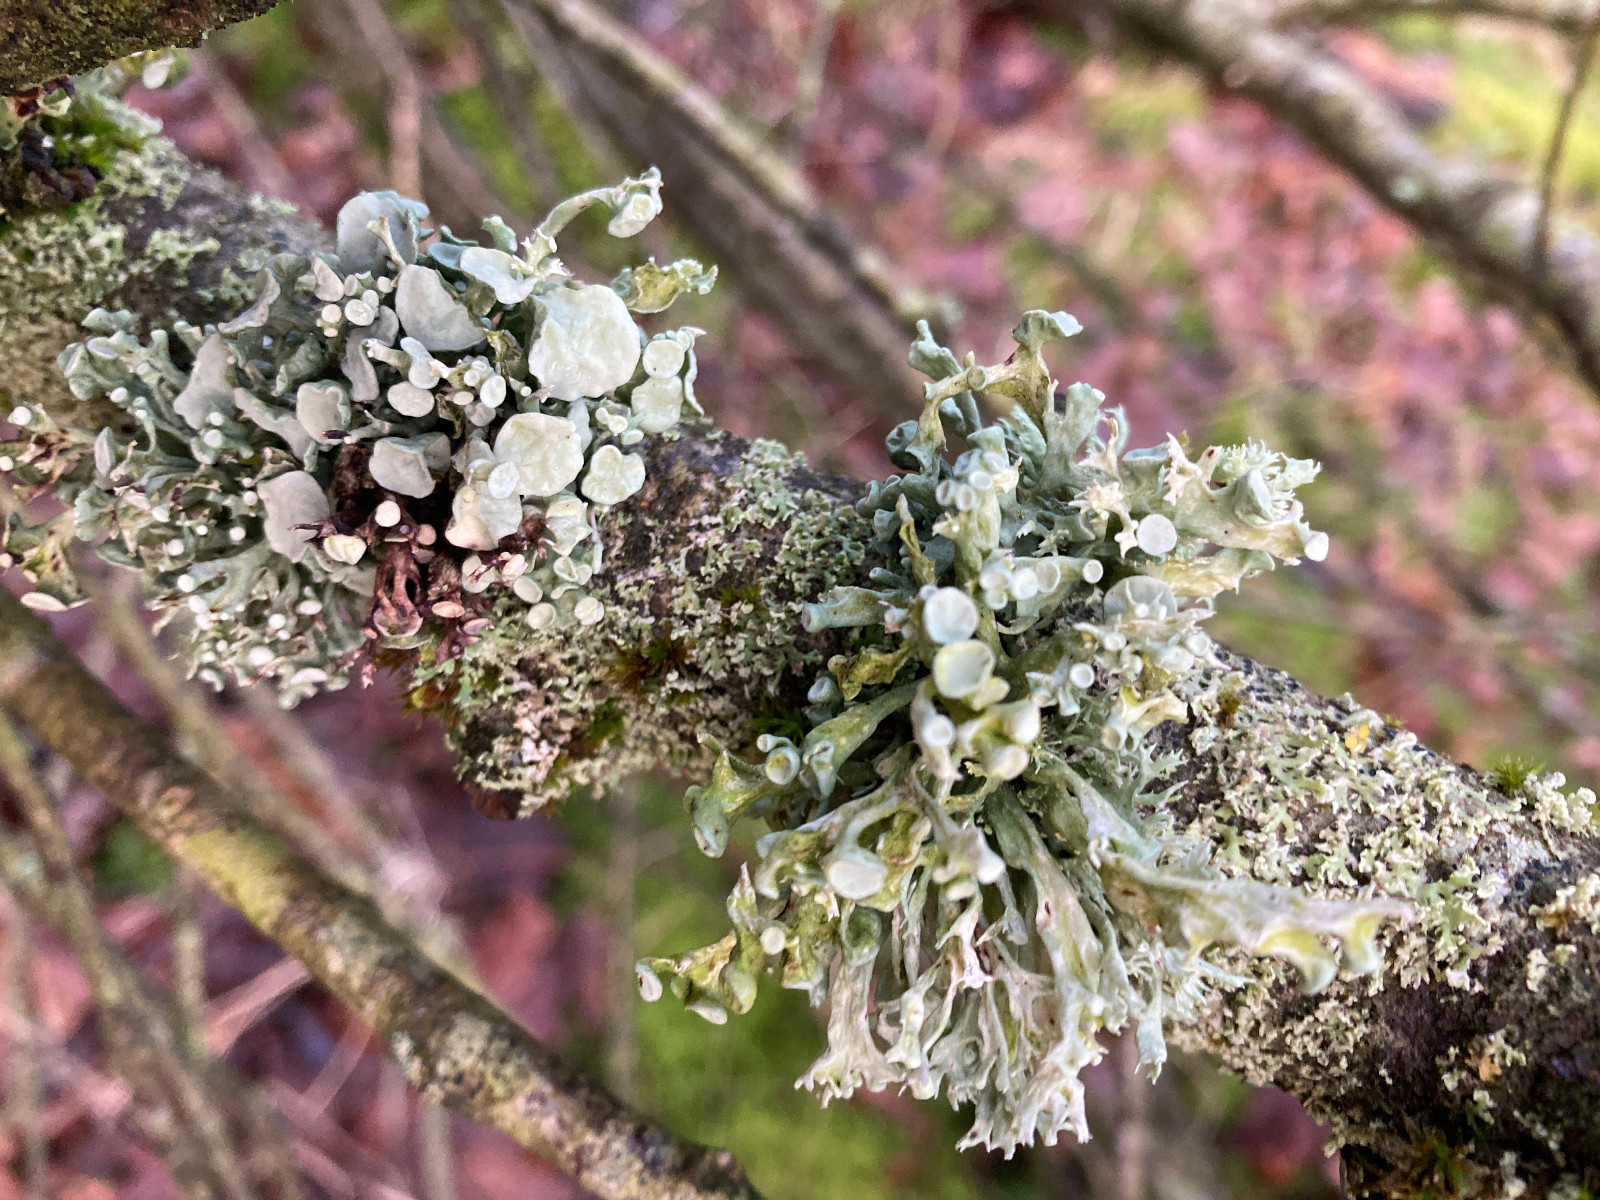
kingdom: Fungi
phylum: Ascomycota
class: Lecanoromycetes
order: Lecanorales
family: Ramalinaceae
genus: Ramalina
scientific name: Ramalina fastigiata
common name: tue-grenlav
